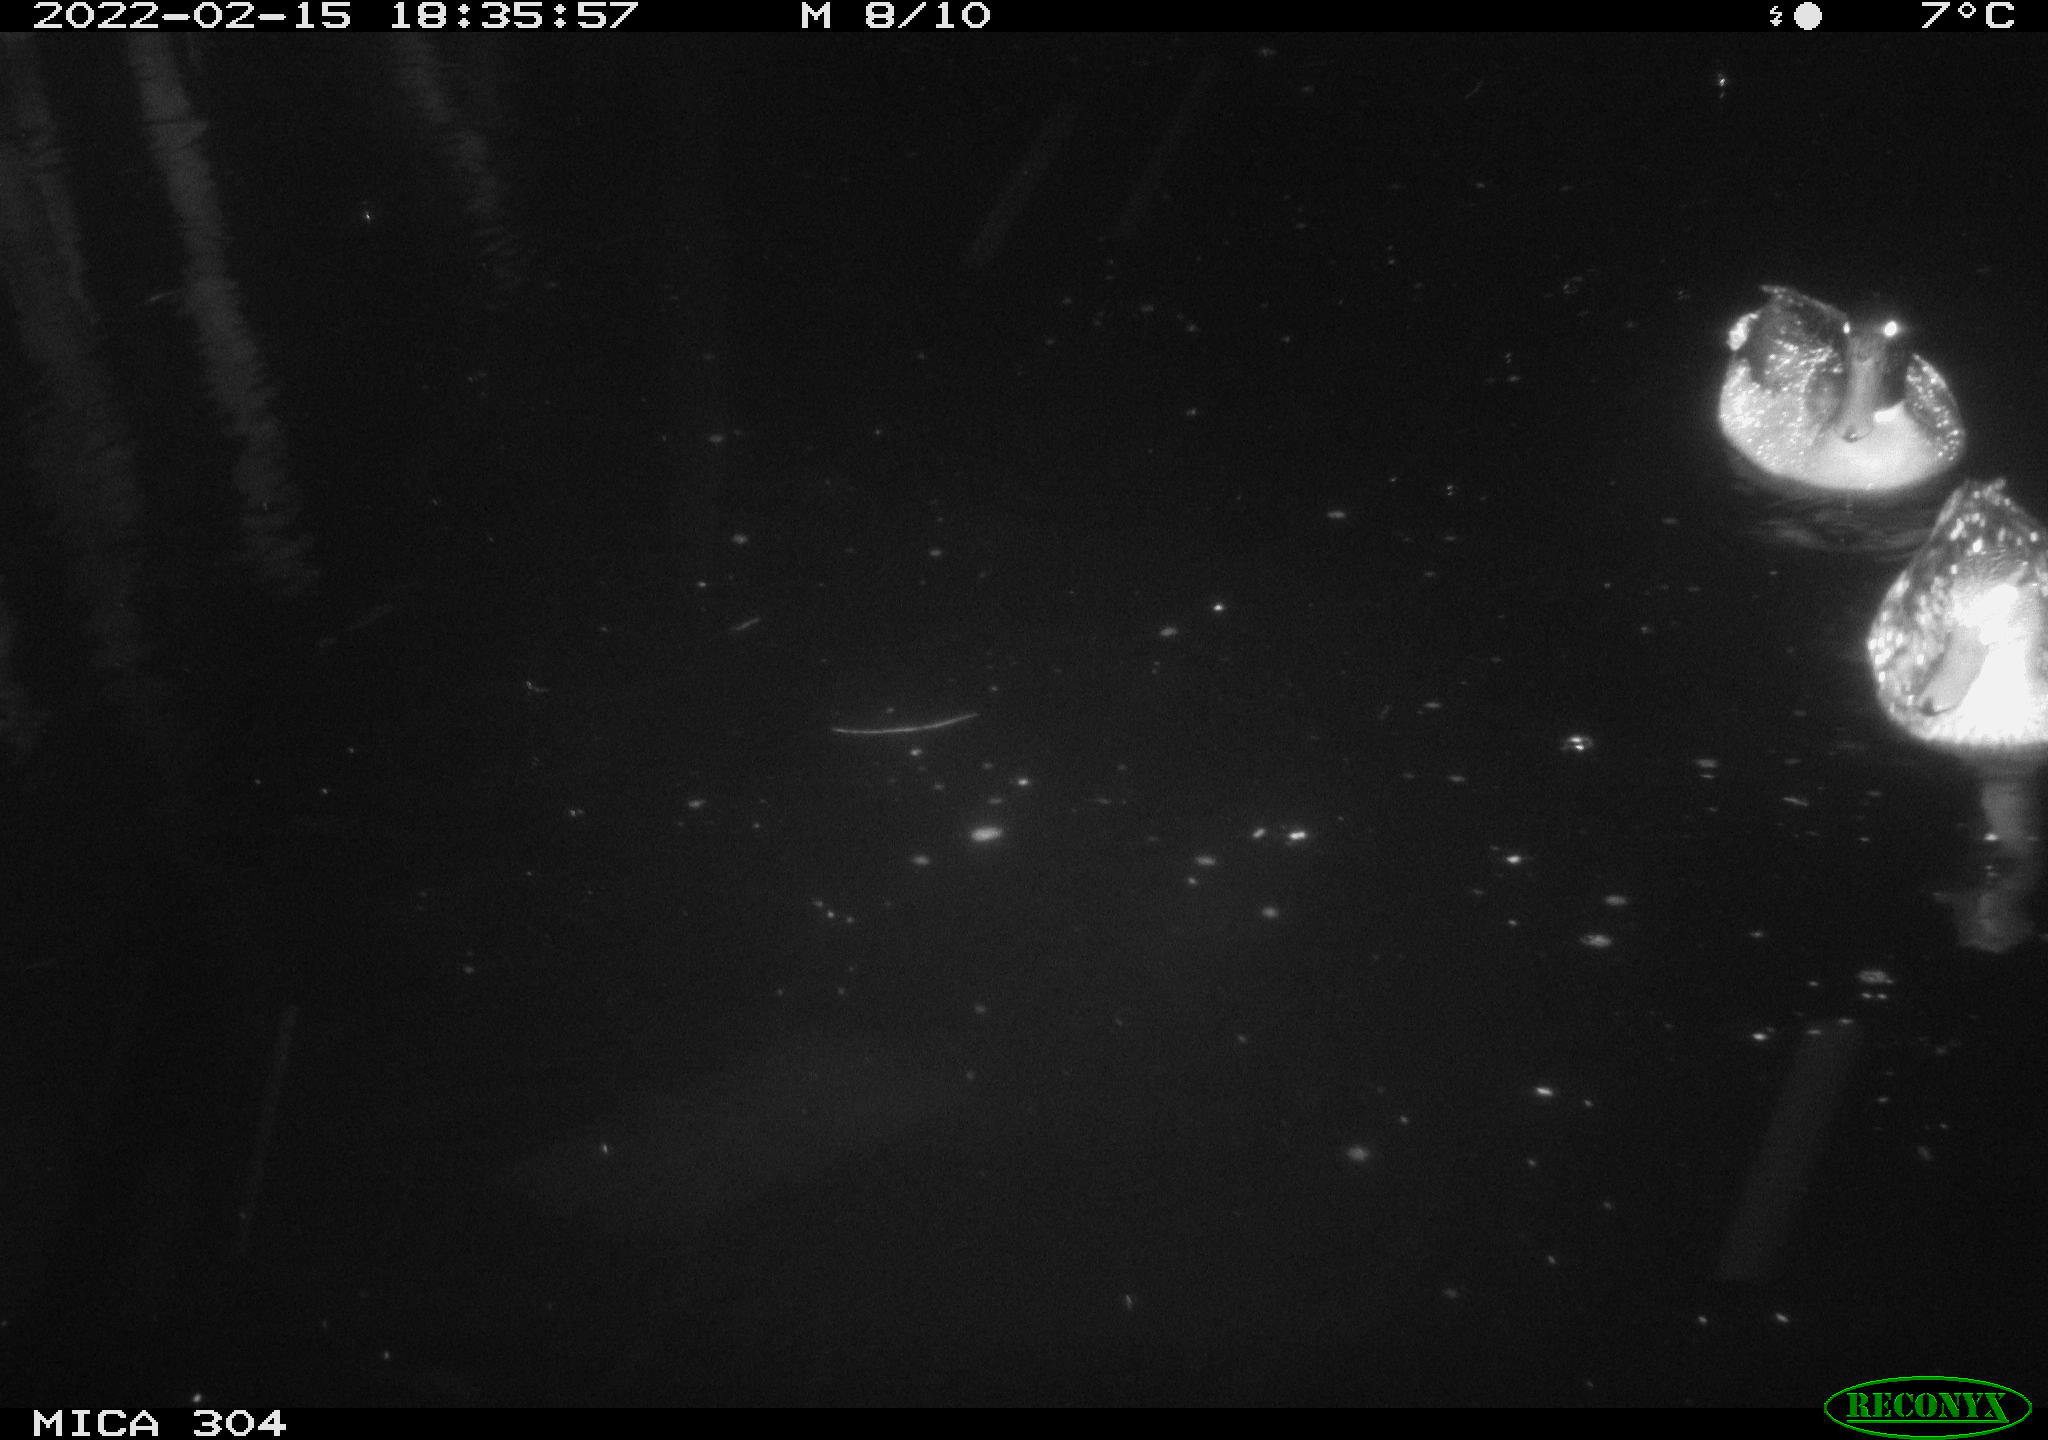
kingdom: Animalia
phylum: Chordata
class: Aves
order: Gruiformes
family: Rallidae
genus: Gallinula
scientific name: Gallinula chloropus
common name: Common moorhen
